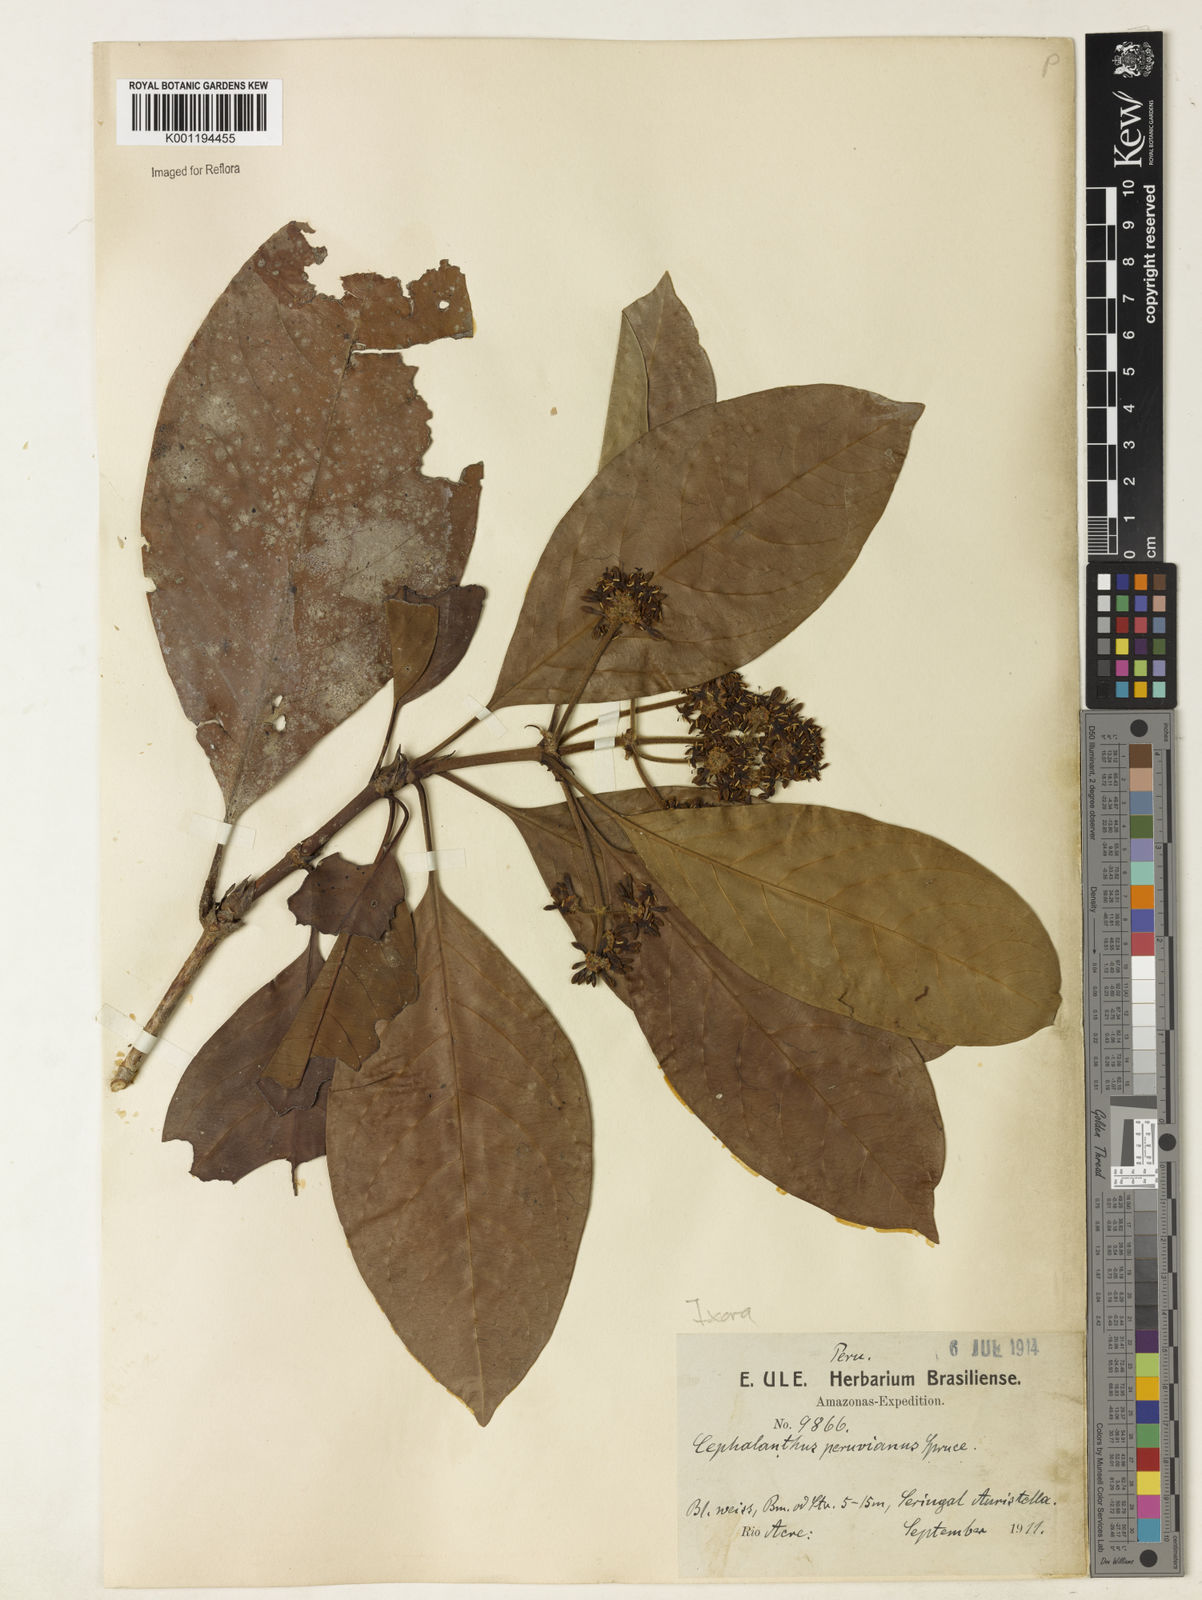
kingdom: Plantae
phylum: Tracheophyta
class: Magnoliopsida
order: Gentianales
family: Rubiaceae
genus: Ixora
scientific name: Ixora peruviana
